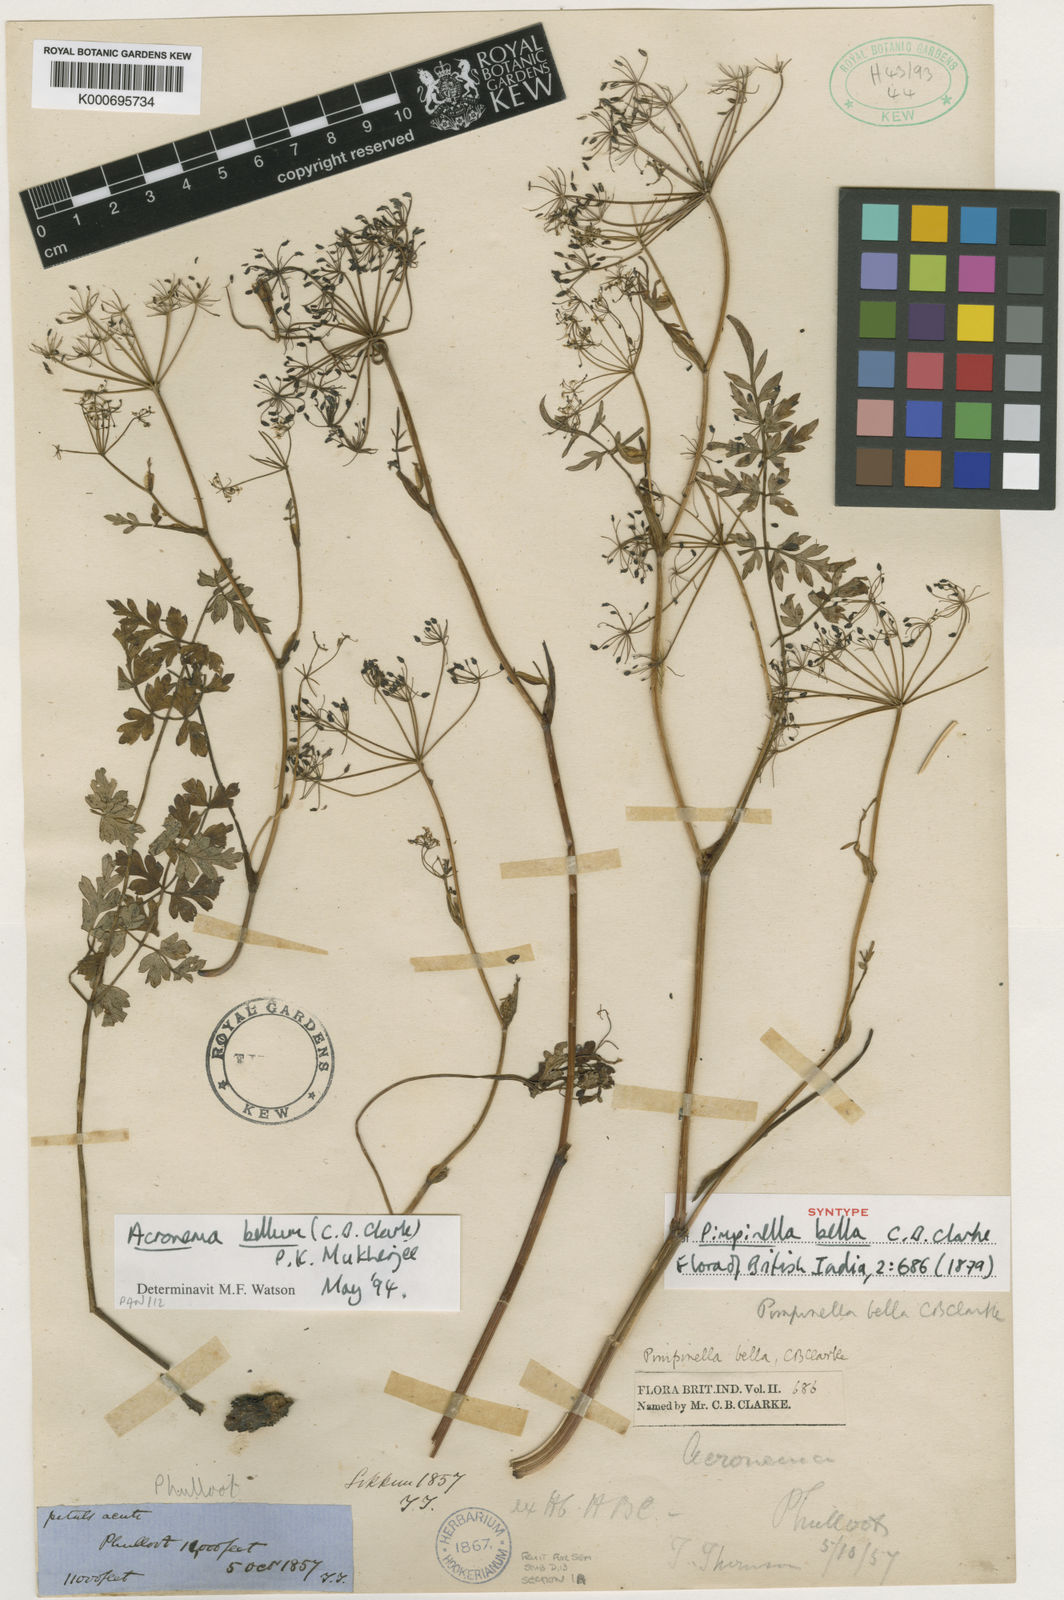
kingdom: Plantae
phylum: Tracheophyta
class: Magnoliopsida
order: Apiales
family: Apiaceae
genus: Sinocarum
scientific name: Sinocarum bellum
